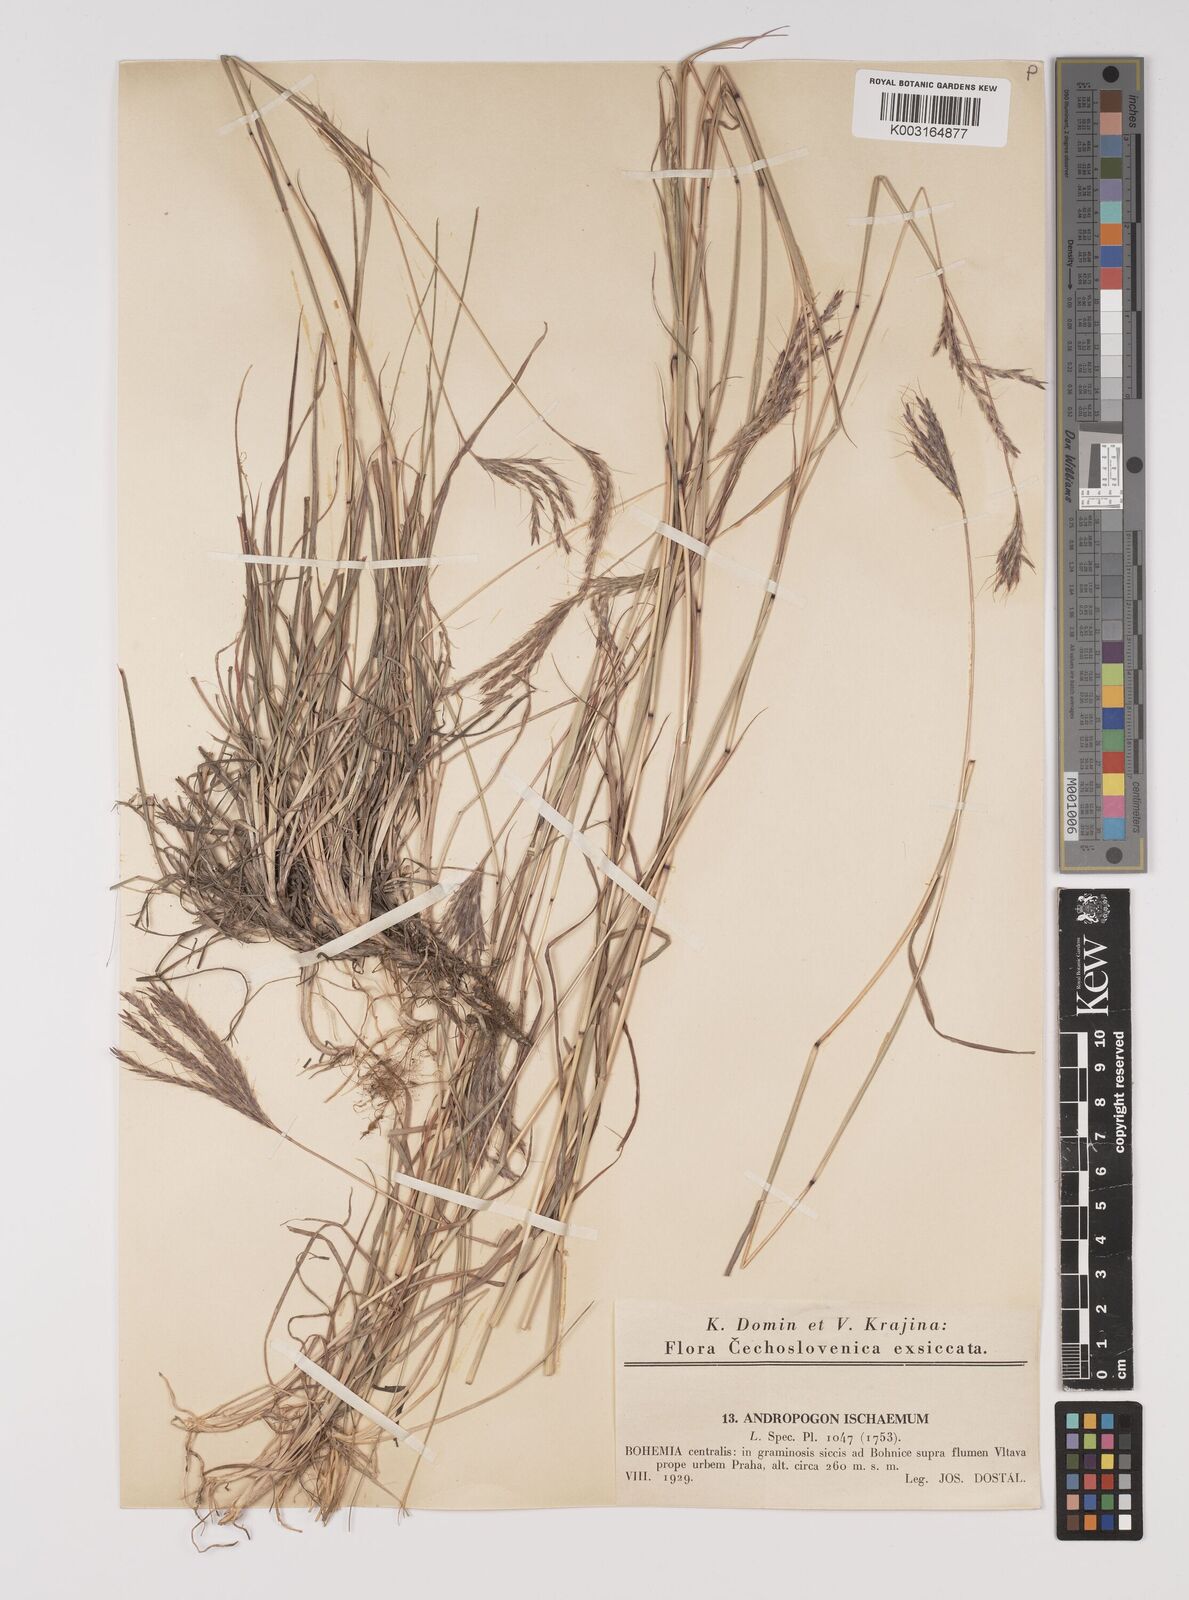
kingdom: Plantae
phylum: Tracheophyta
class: Liliopsida
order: Poales
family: Poaceae
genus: Bothriochloa
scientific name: Bothriochloa ischaemum
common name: Yellow bluestem
